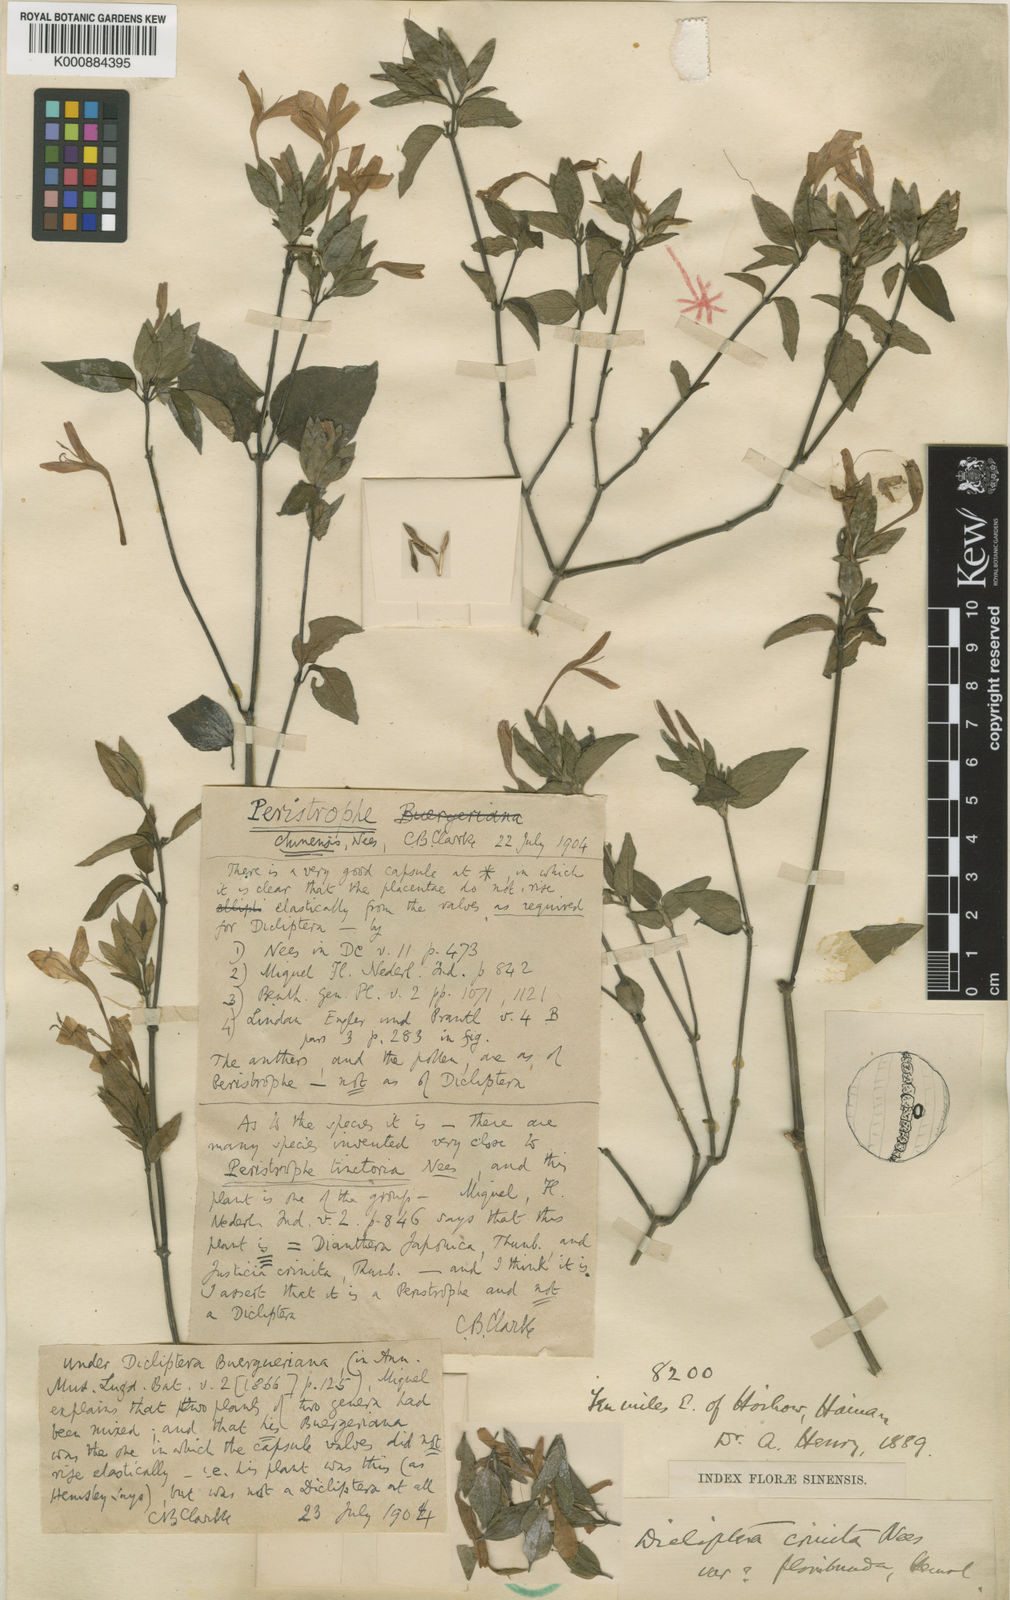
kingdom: Plantae
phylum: Tracheophyta
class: Magnoliopsida
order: Lamiales
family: Acanthaceae
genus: Dicliptera
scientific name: Dicliptera japonica
